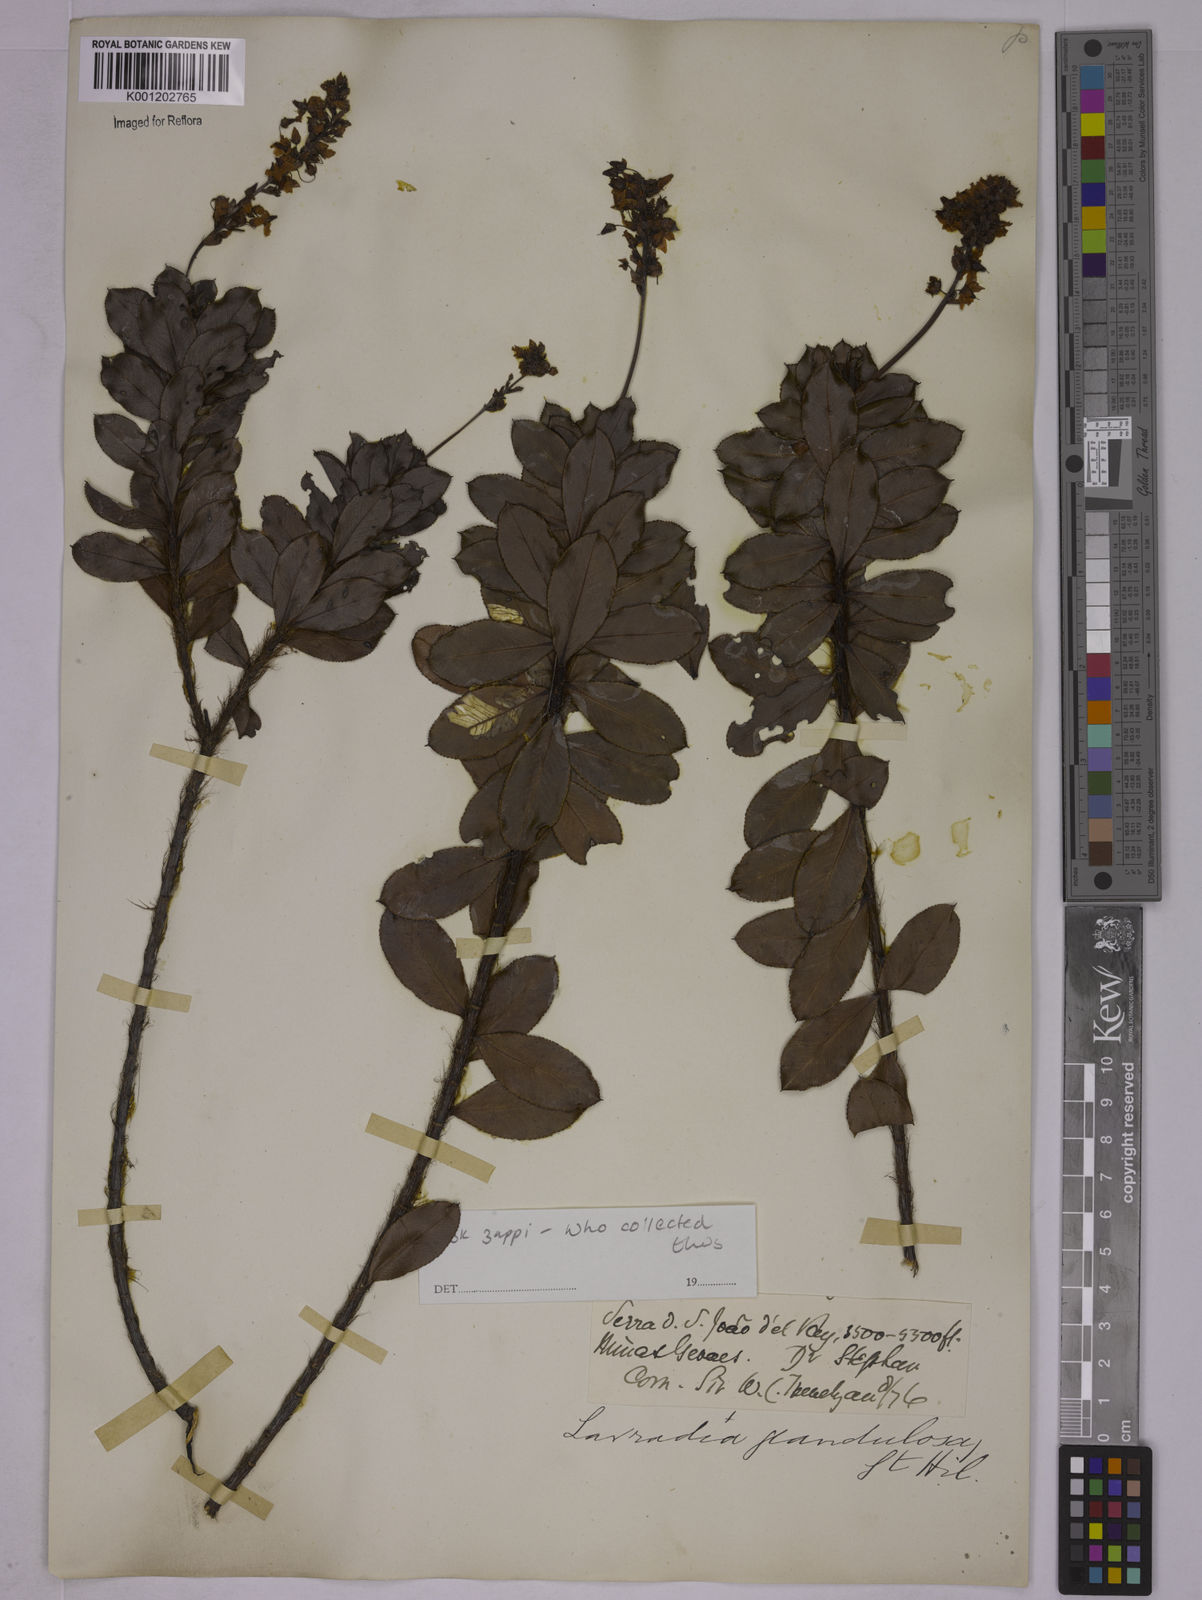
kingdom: Plantae
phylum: Tracheophyta
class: Magnoliopsida
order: Malpighiales
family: Ochnaceae
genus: Sauvagesia
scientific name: Sauvagesia elegantissima
